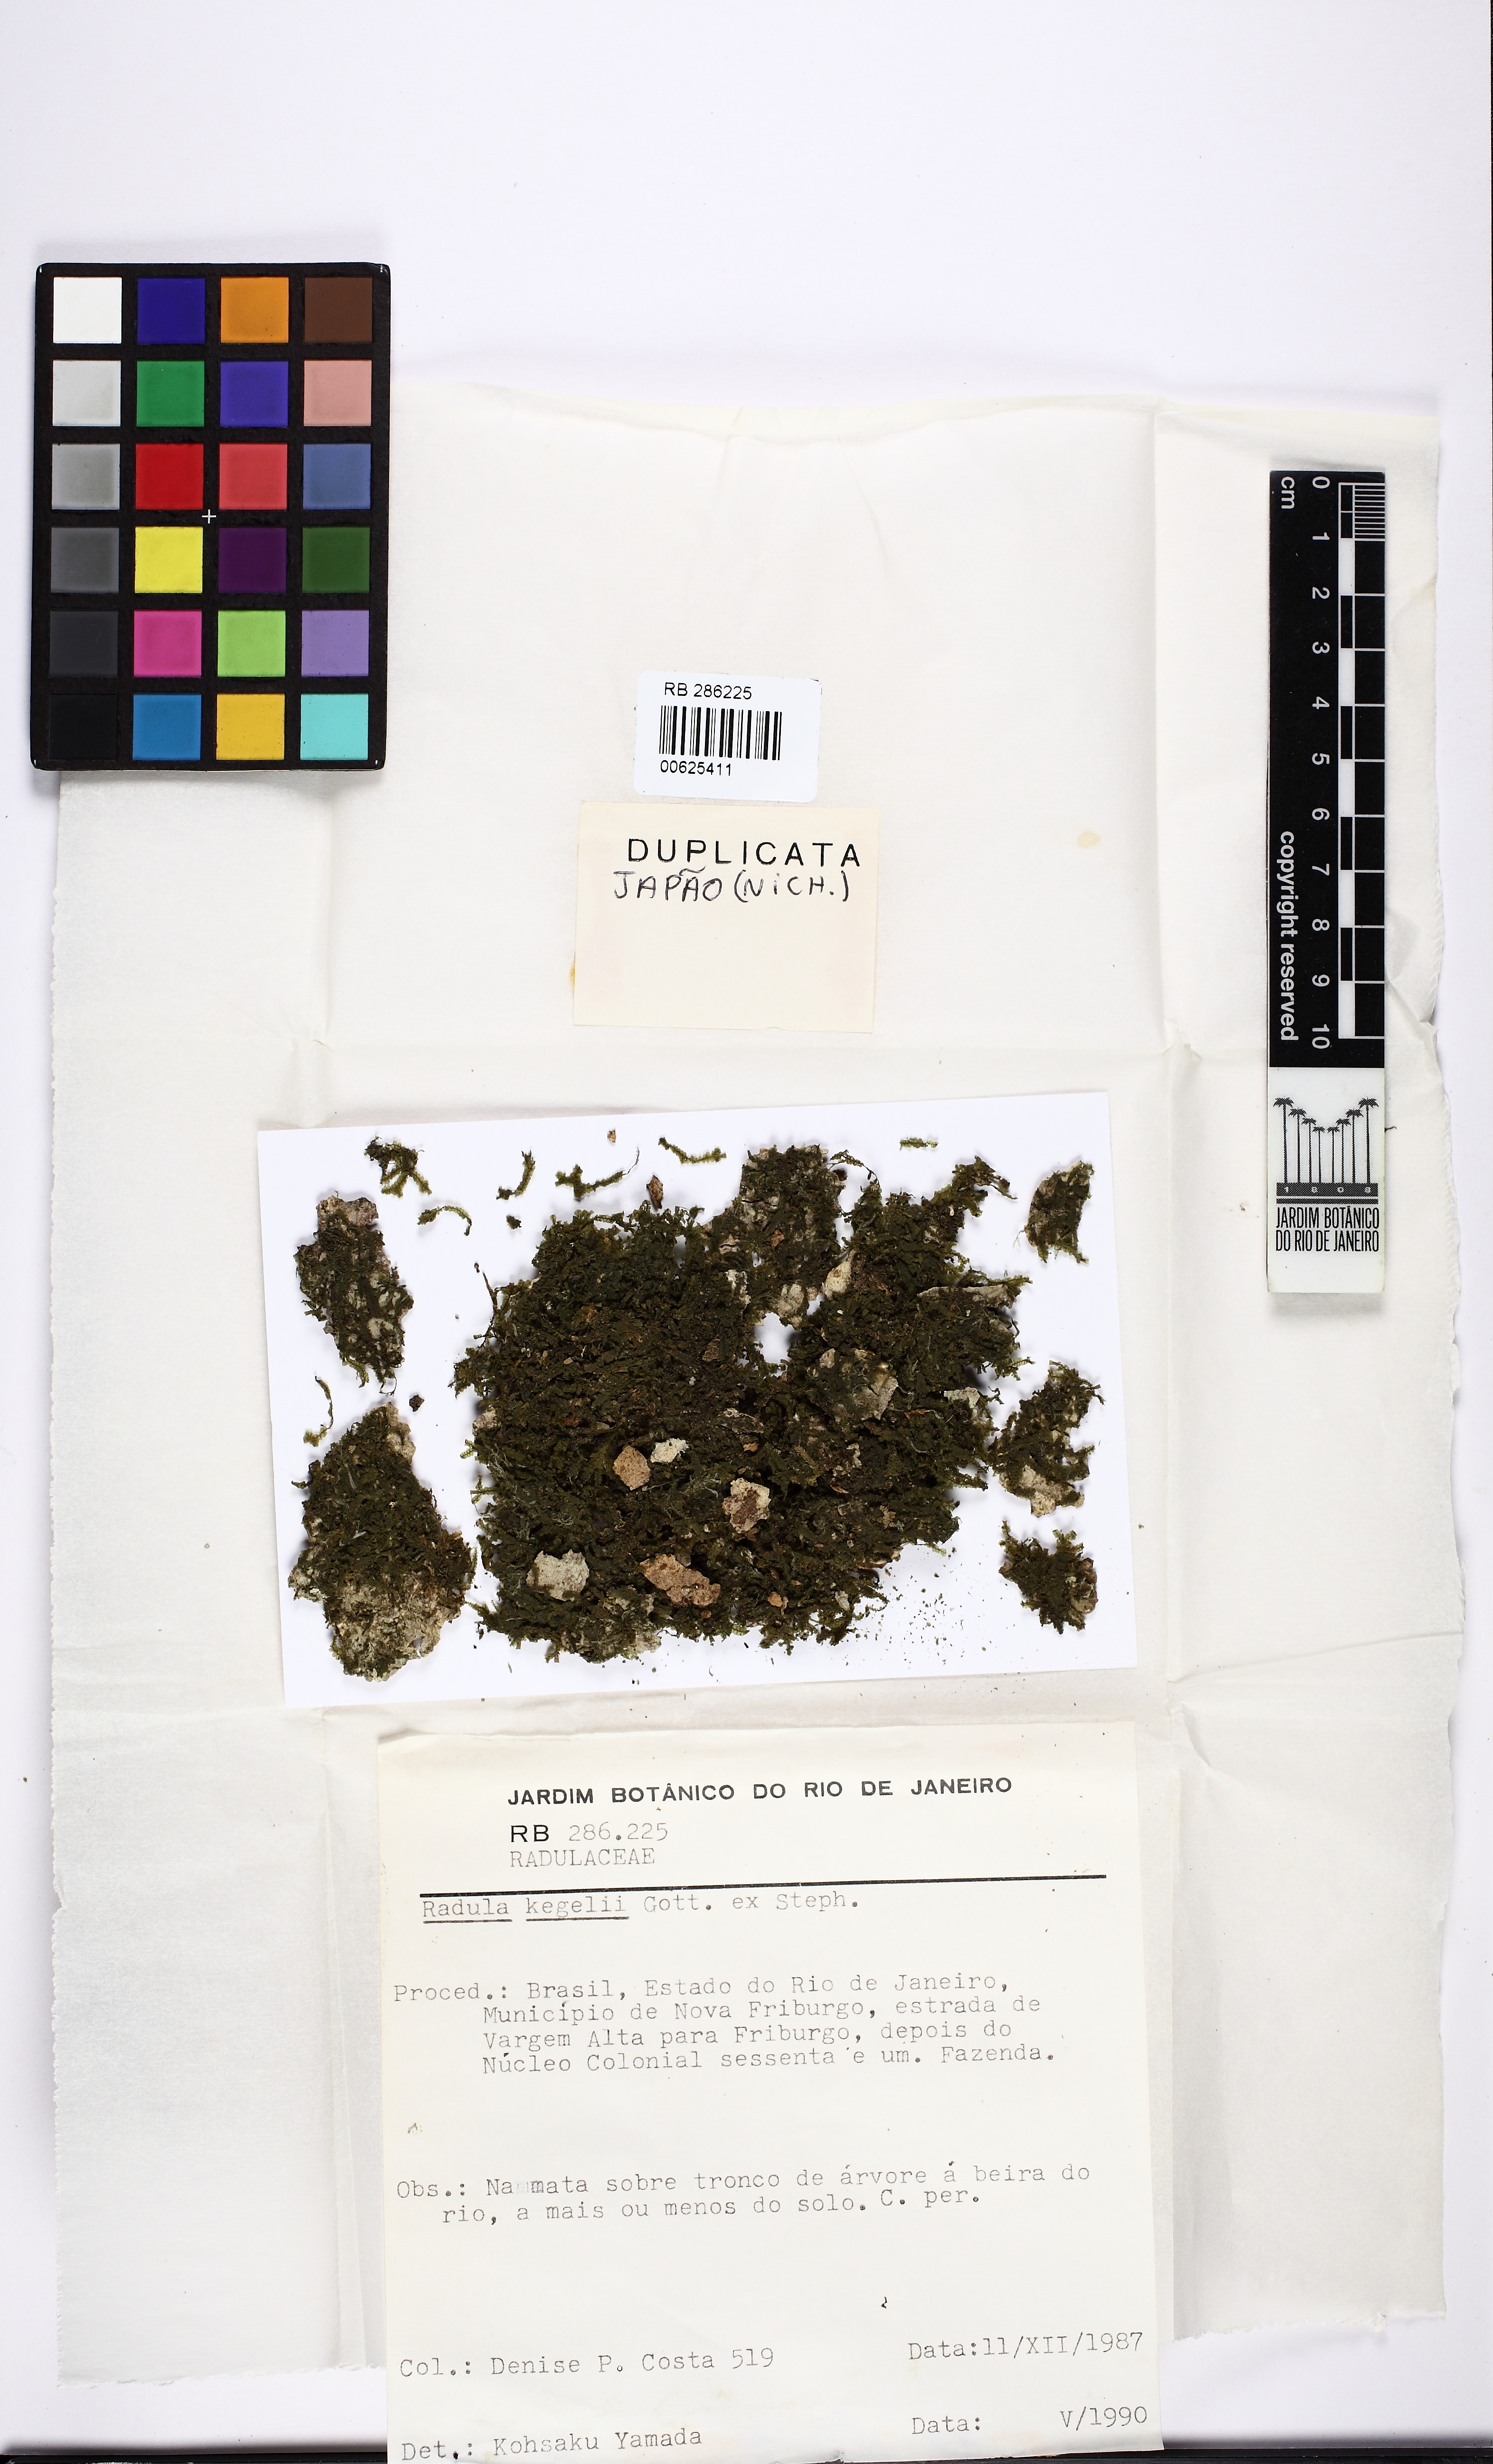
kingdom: Plantae
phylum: Marchantiophyta
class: Jungermanniopsida
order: Porellales
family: Radulaceae
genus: Radula
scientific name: Radula pallens
